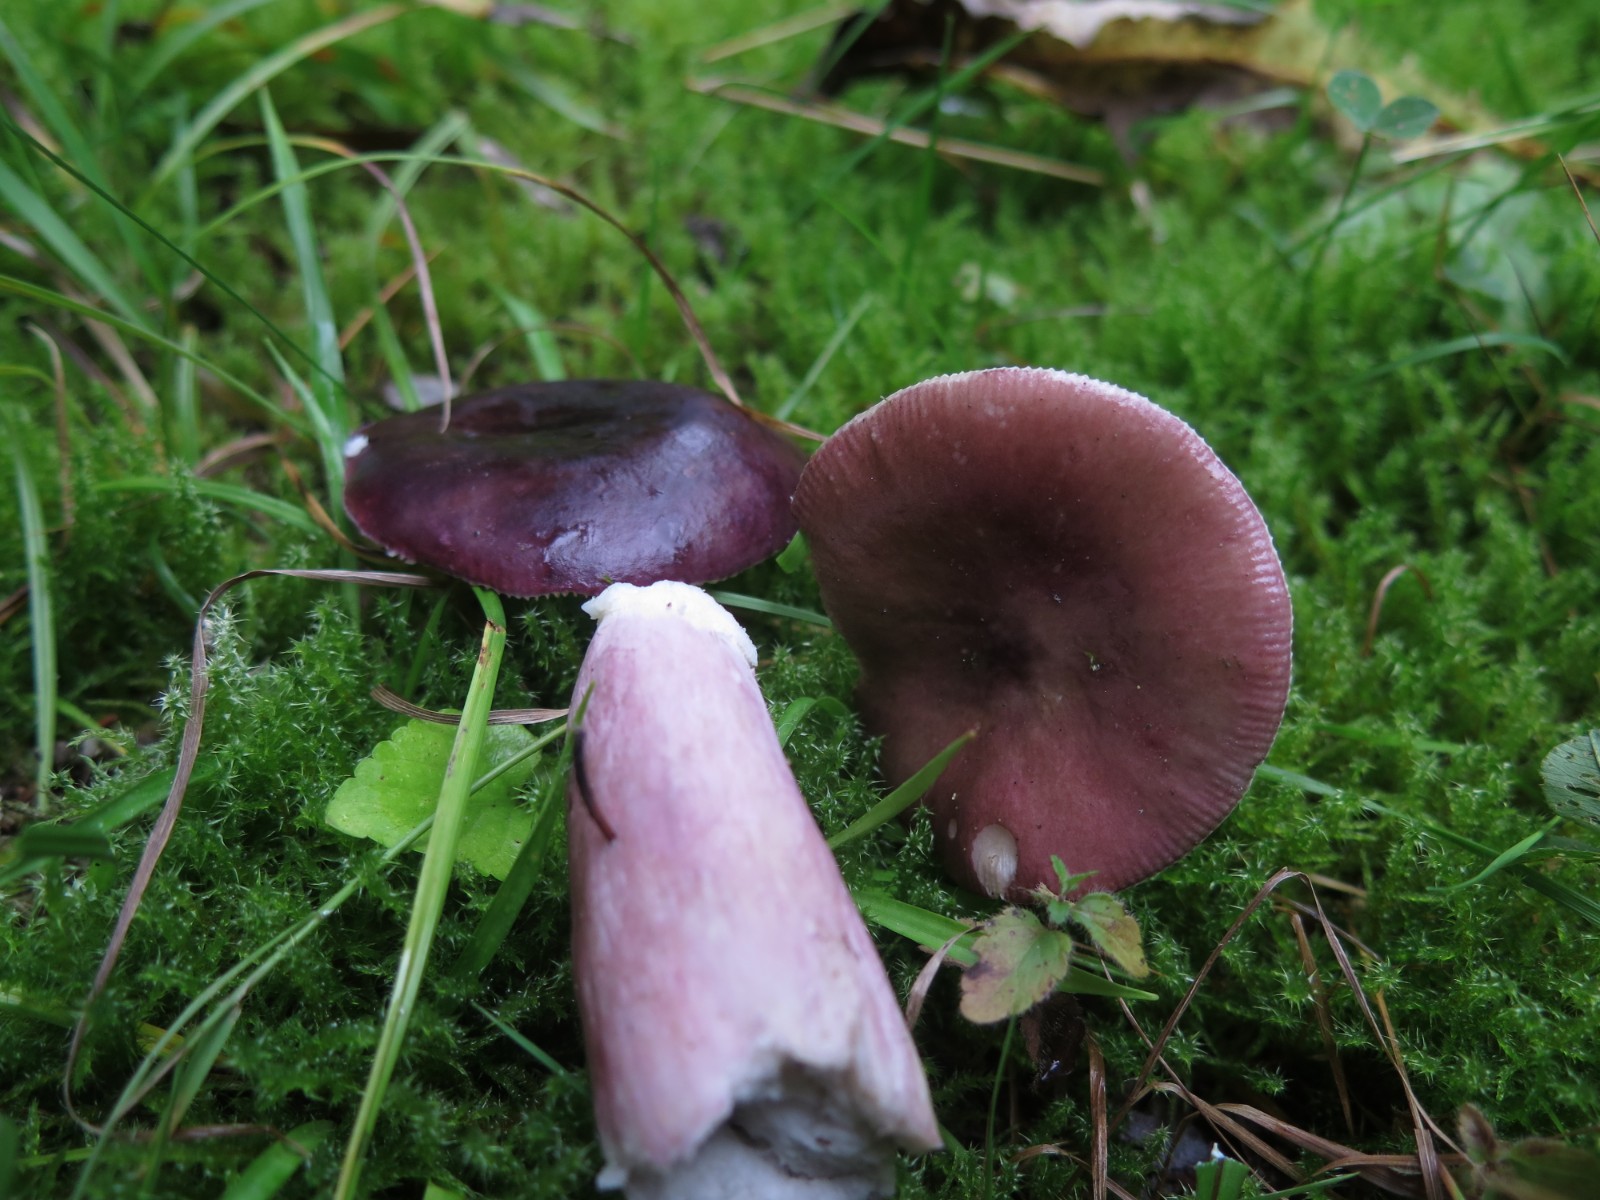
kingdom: Fungi
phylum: Basidiomycota
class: Agaricomycetes
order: Russulales
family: Russulaceae
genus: Russula
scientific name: Russula queletii
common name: Quélets skørhat
